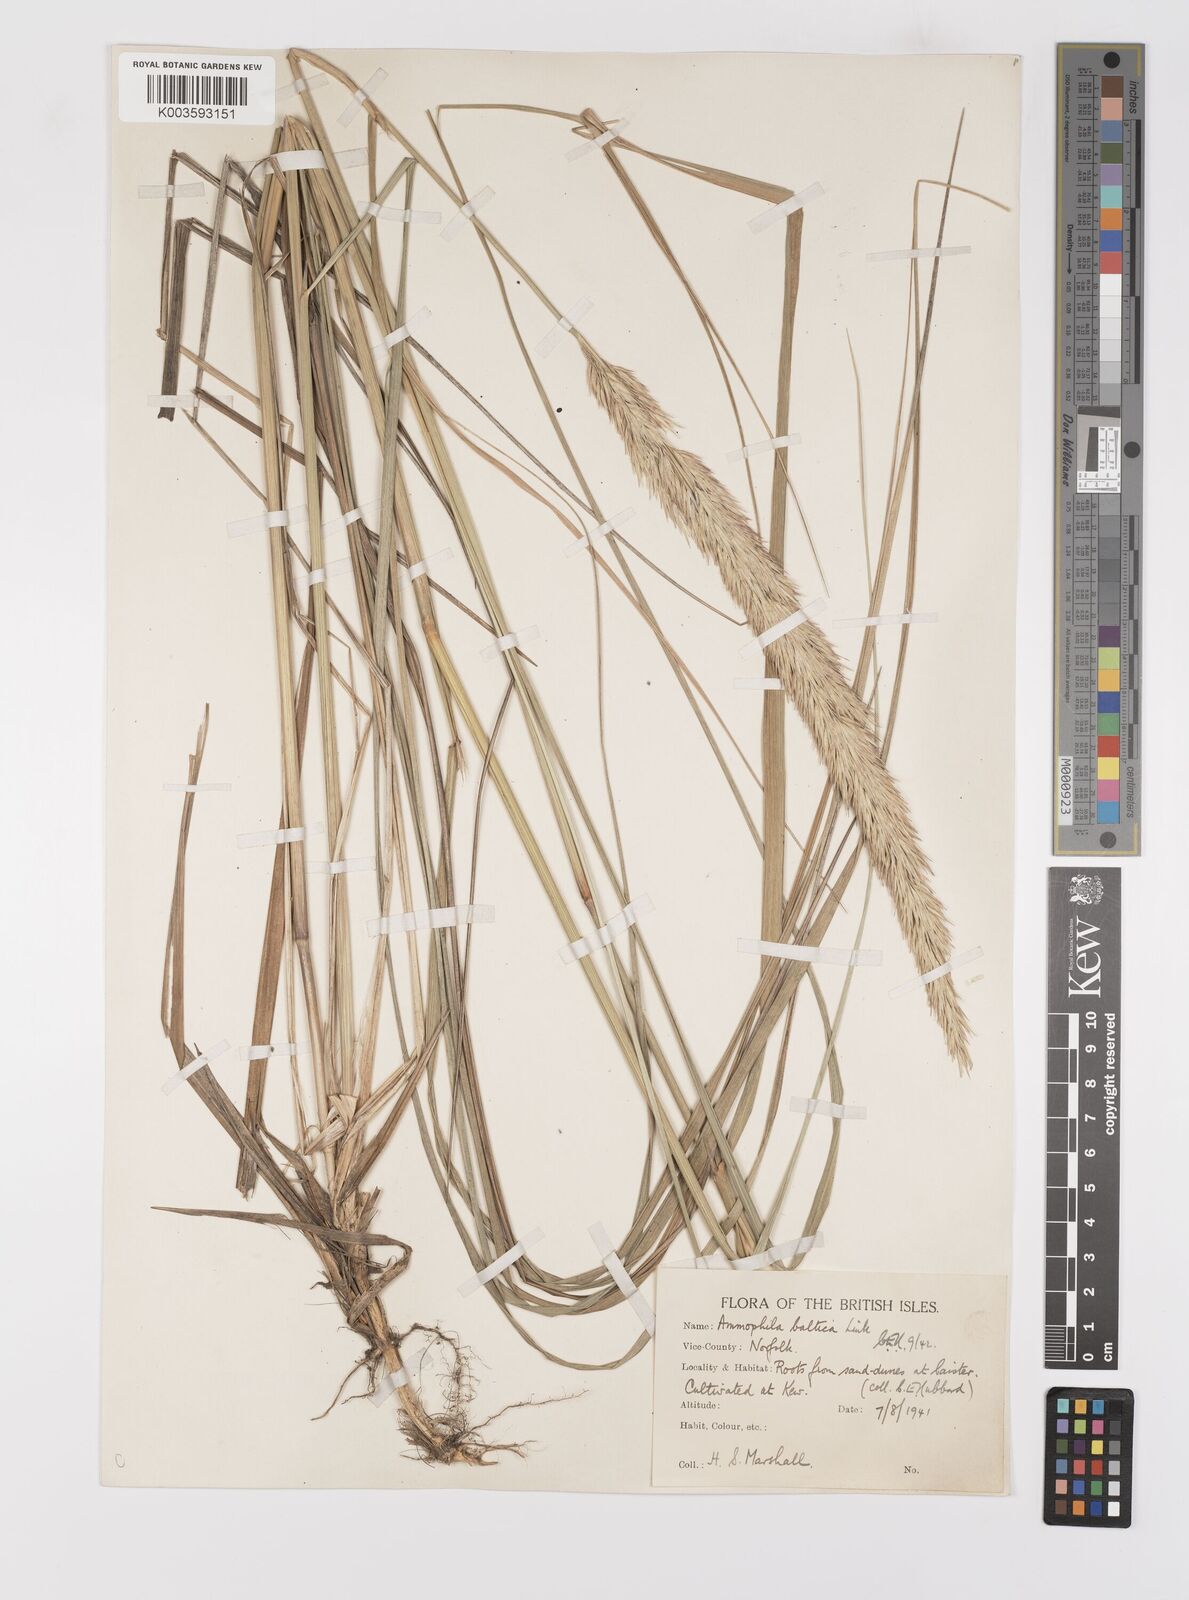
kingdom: Plantae
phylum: Tracheophyta
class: Liliopsida
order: Poales
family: Poaceae
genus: Calamagrostis
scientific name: Calamagrostis baltica
